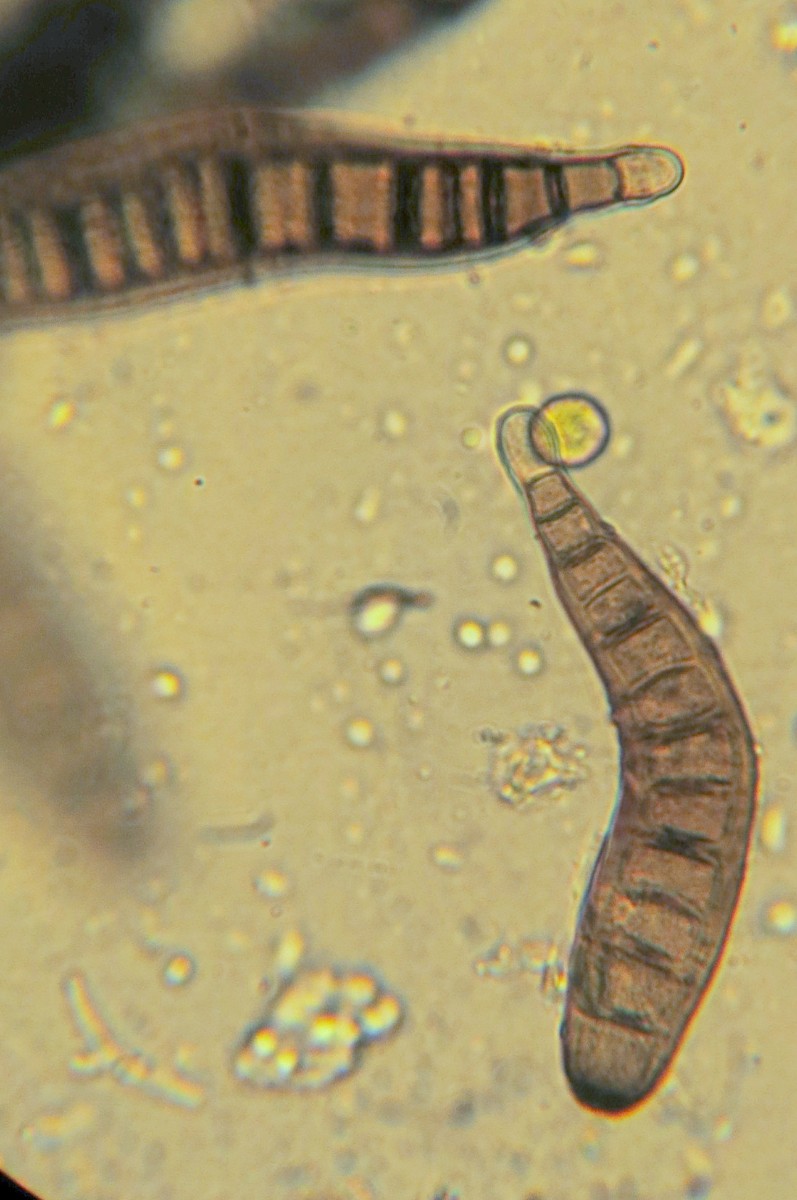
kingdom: Fungi
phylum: Ascomycota
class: Dothideomycetes
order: Pleosporales
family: Massarinaceae
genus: Helminthosporium
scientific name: Helminthosporium
